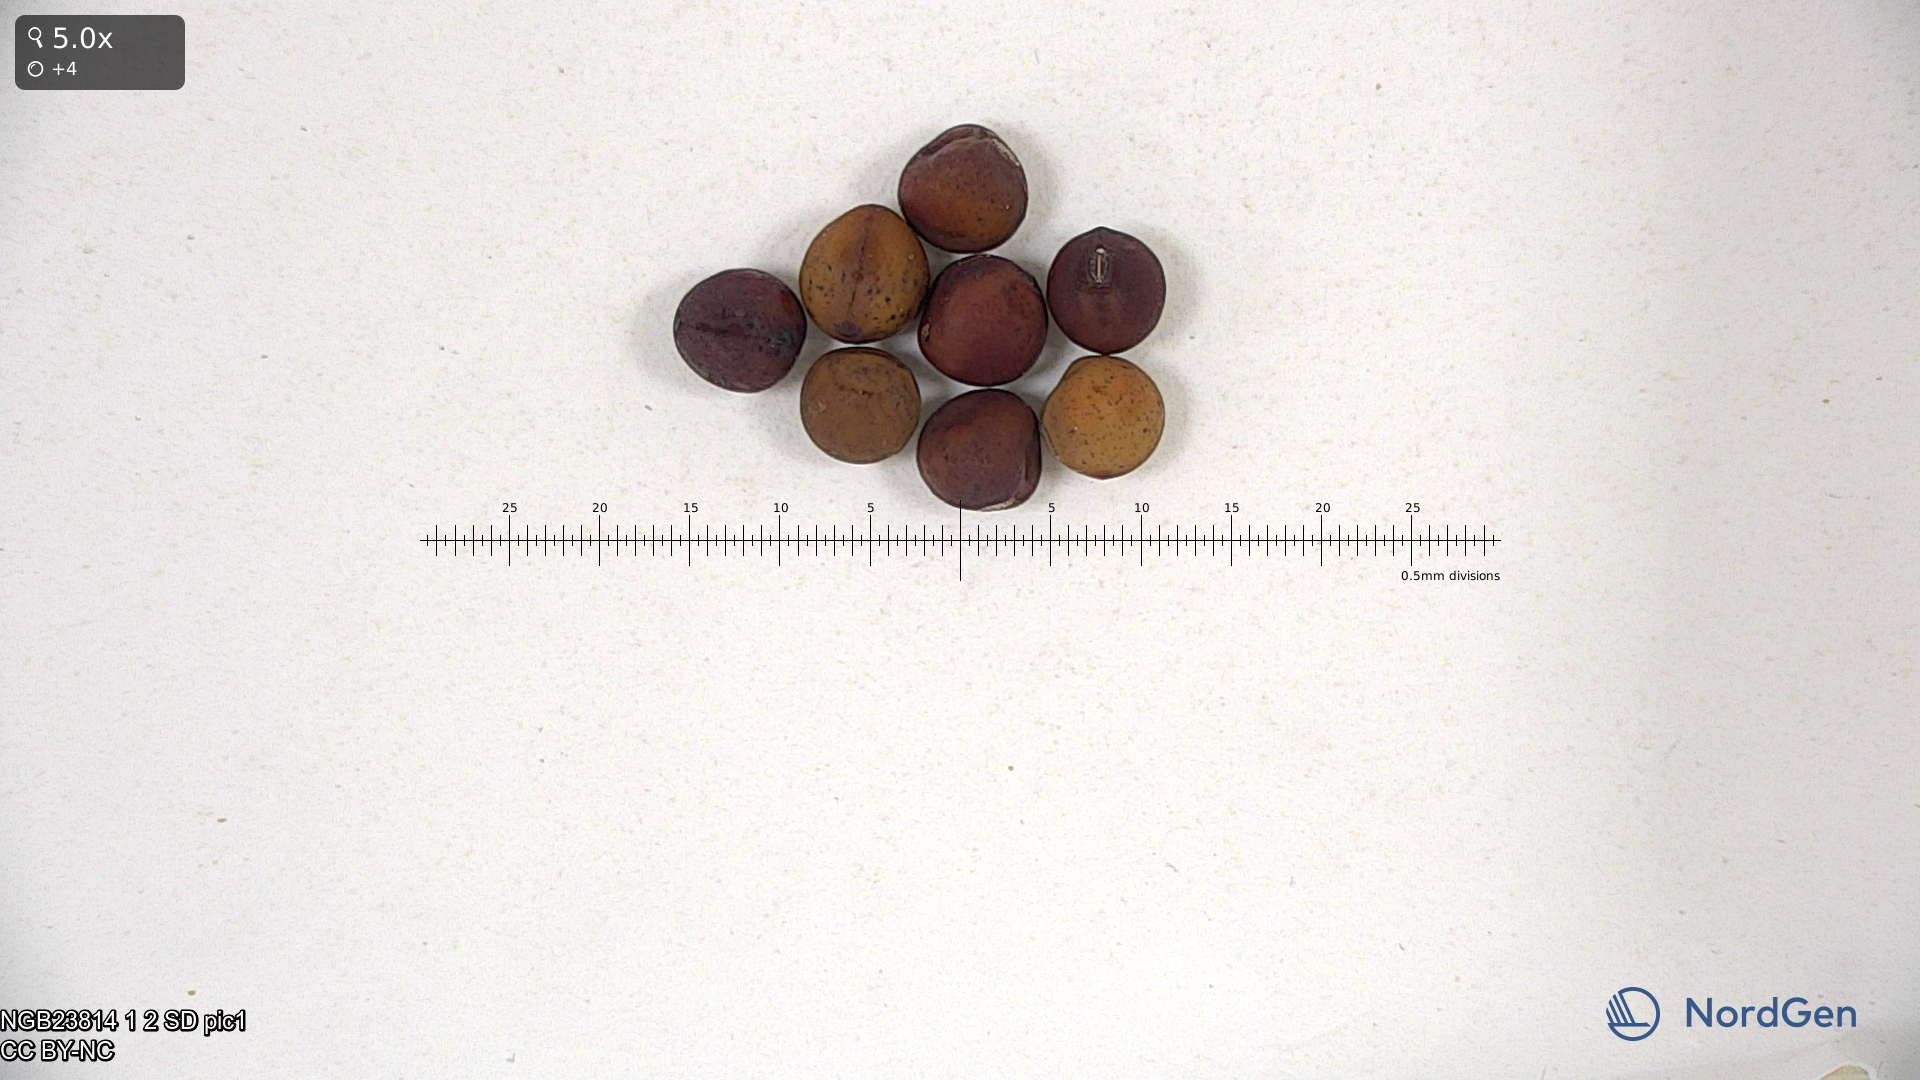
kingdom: Plantae
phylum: Tracheophyta
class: Magnoliopsida
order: Fabales
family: Fabaceae
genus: Lathyrus
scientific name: Lathyrus oleraceus
